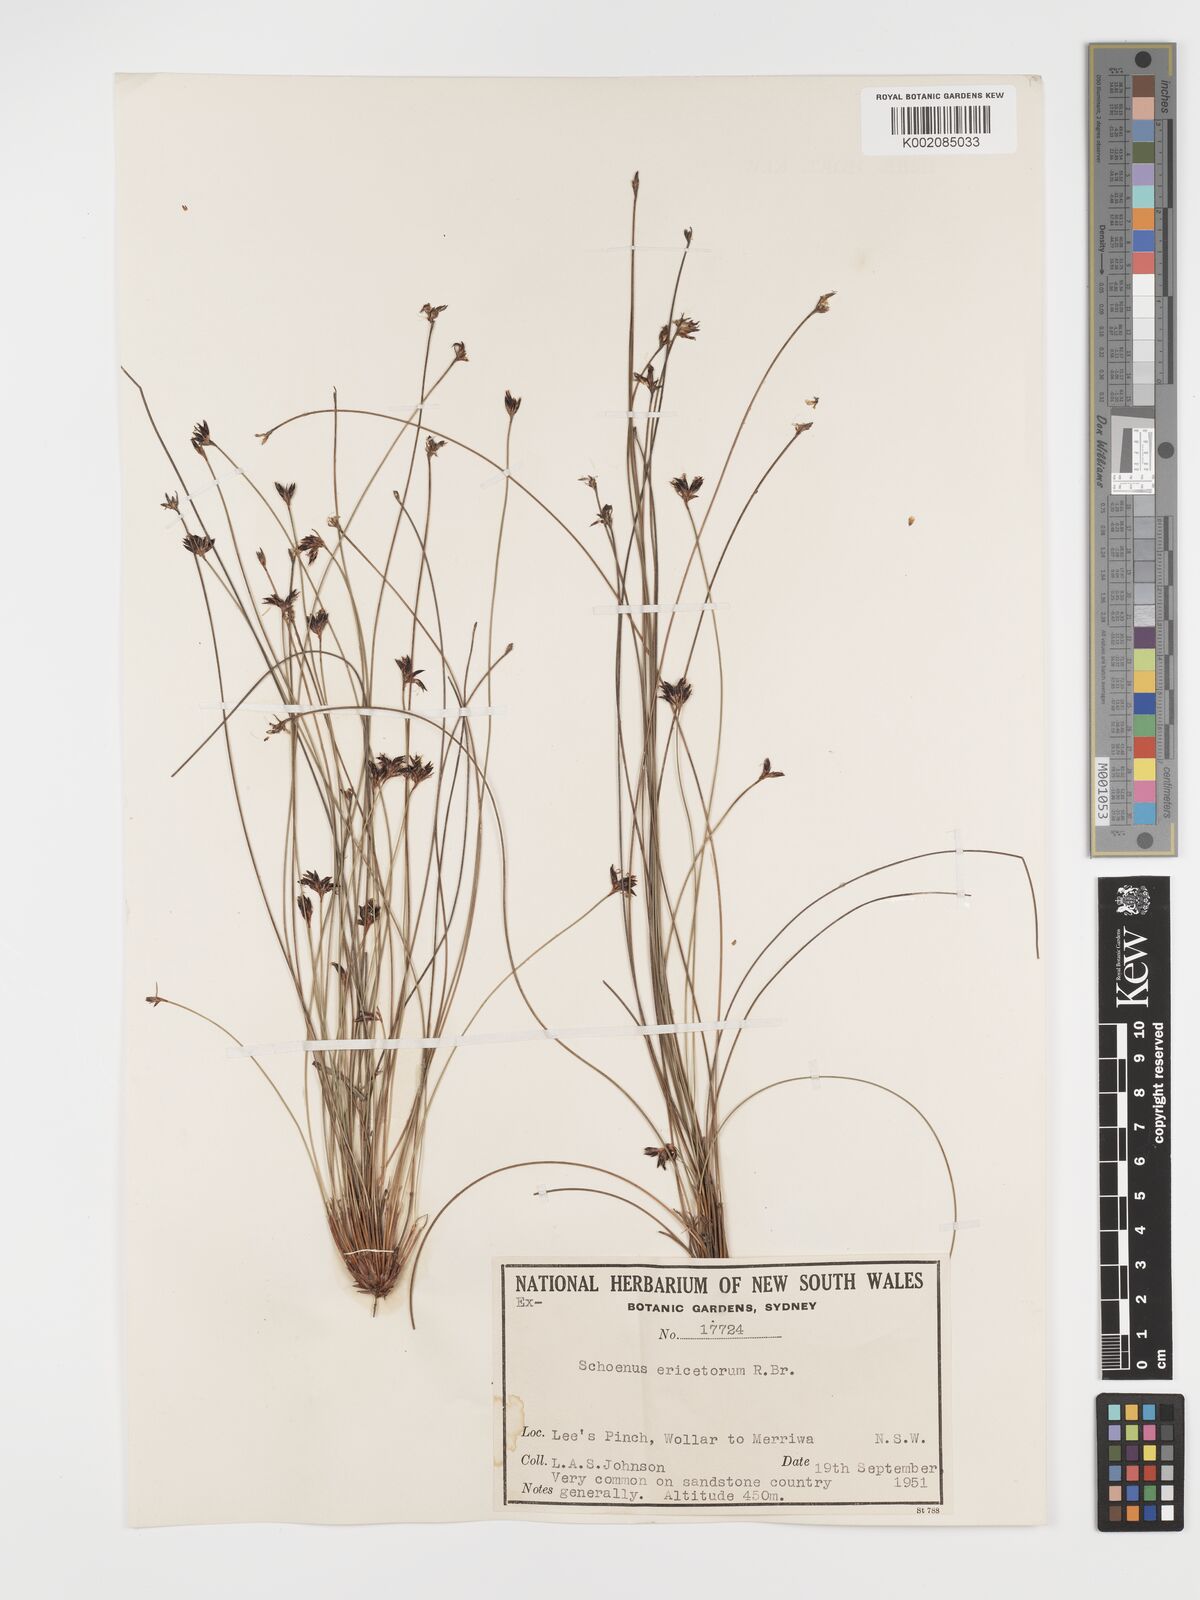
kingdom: Plantae
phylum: Tracheophyta
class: Liliopsida
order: Poales
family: Cyperaceae
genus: Schoenus
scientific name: Schoenus ericetorum
